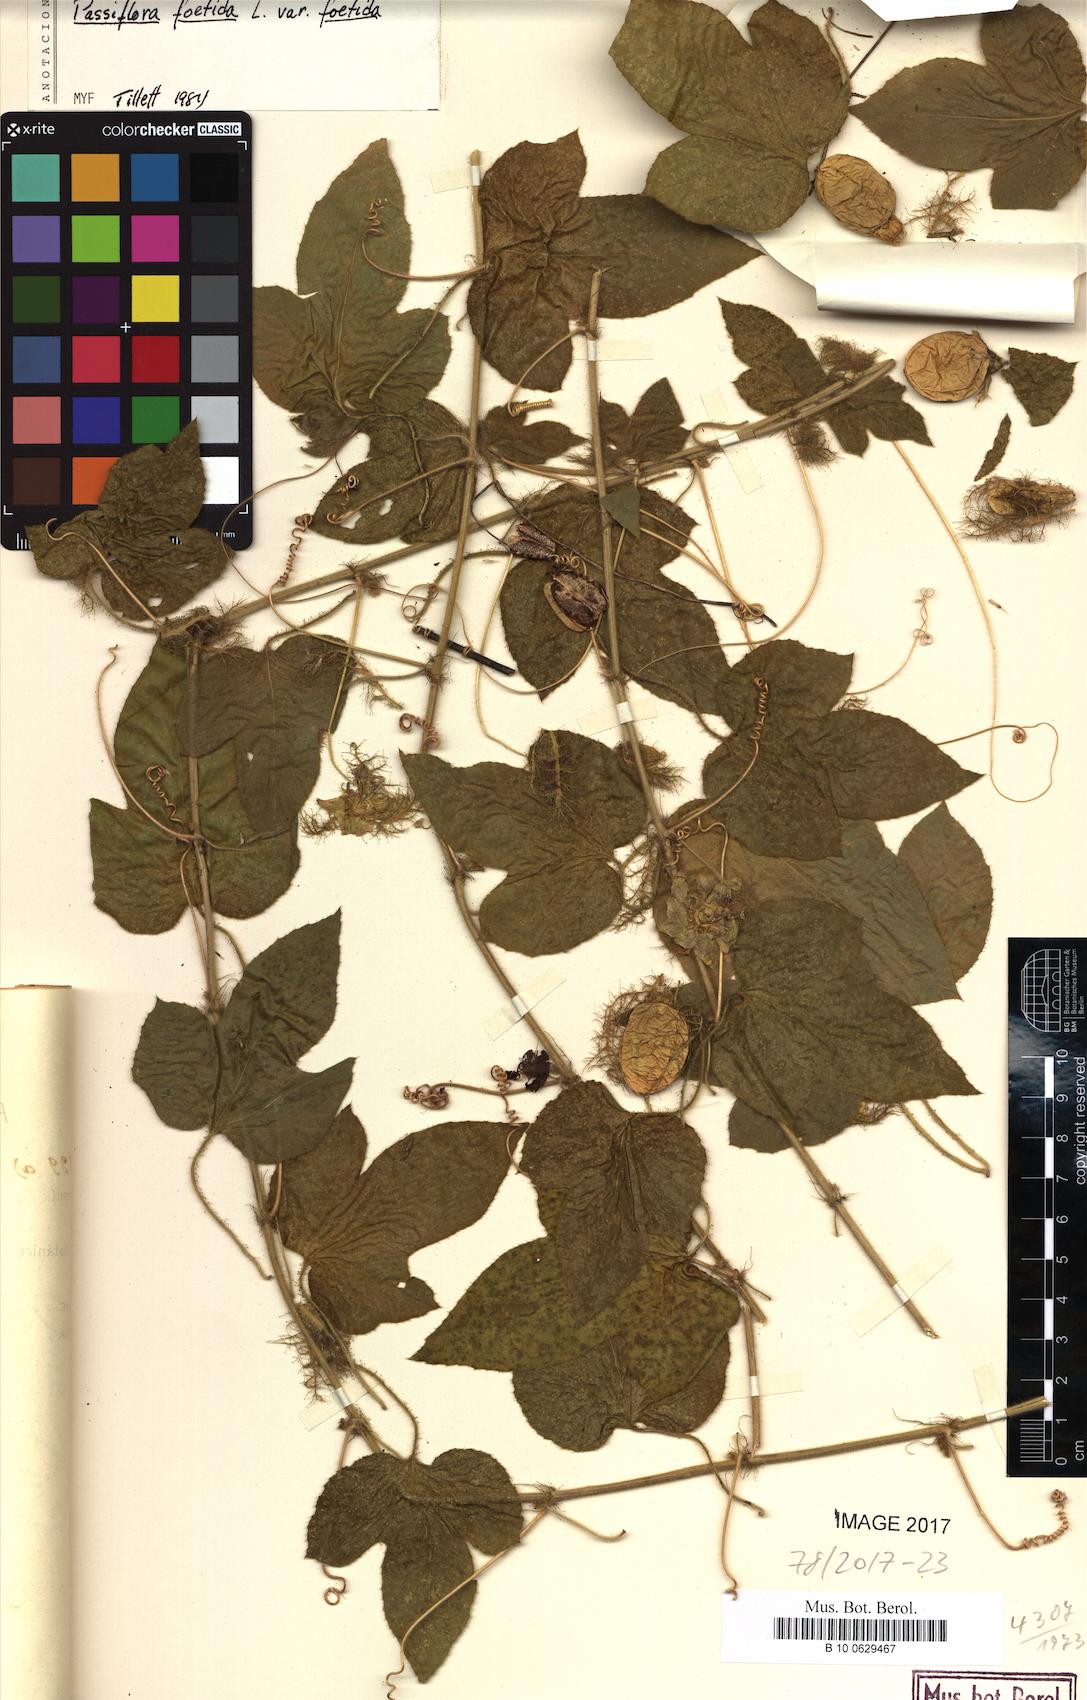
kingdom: Plantae
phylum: Tracheophyta
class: Magnoliopsida
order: Malpighiales
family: Passifloraceae
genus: Passiflora
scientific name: Passiflora foetida
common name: Fetid passionflower
